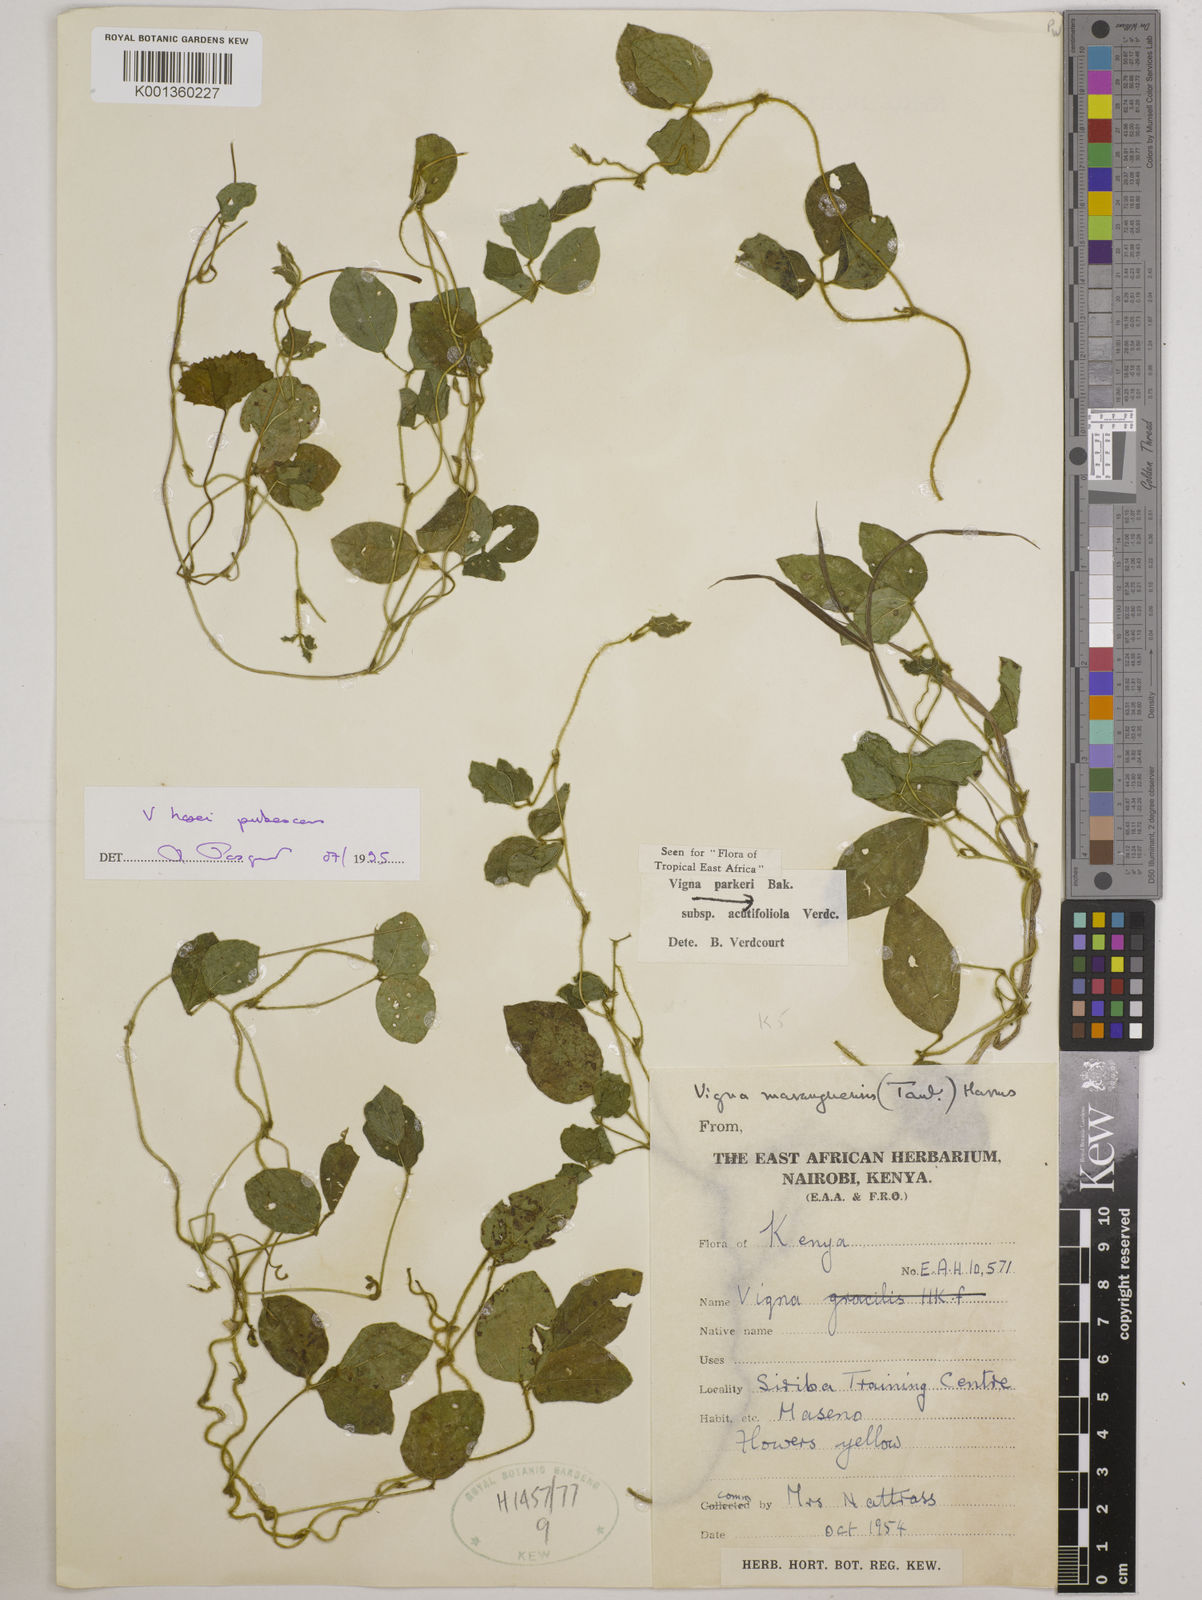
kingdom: Plantae
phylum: Tracheophyta
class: Magnoliopsida
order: Fabales
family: Fabaceae
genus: Vigna
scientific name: Vigna hosei
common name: Sarawak-bean
